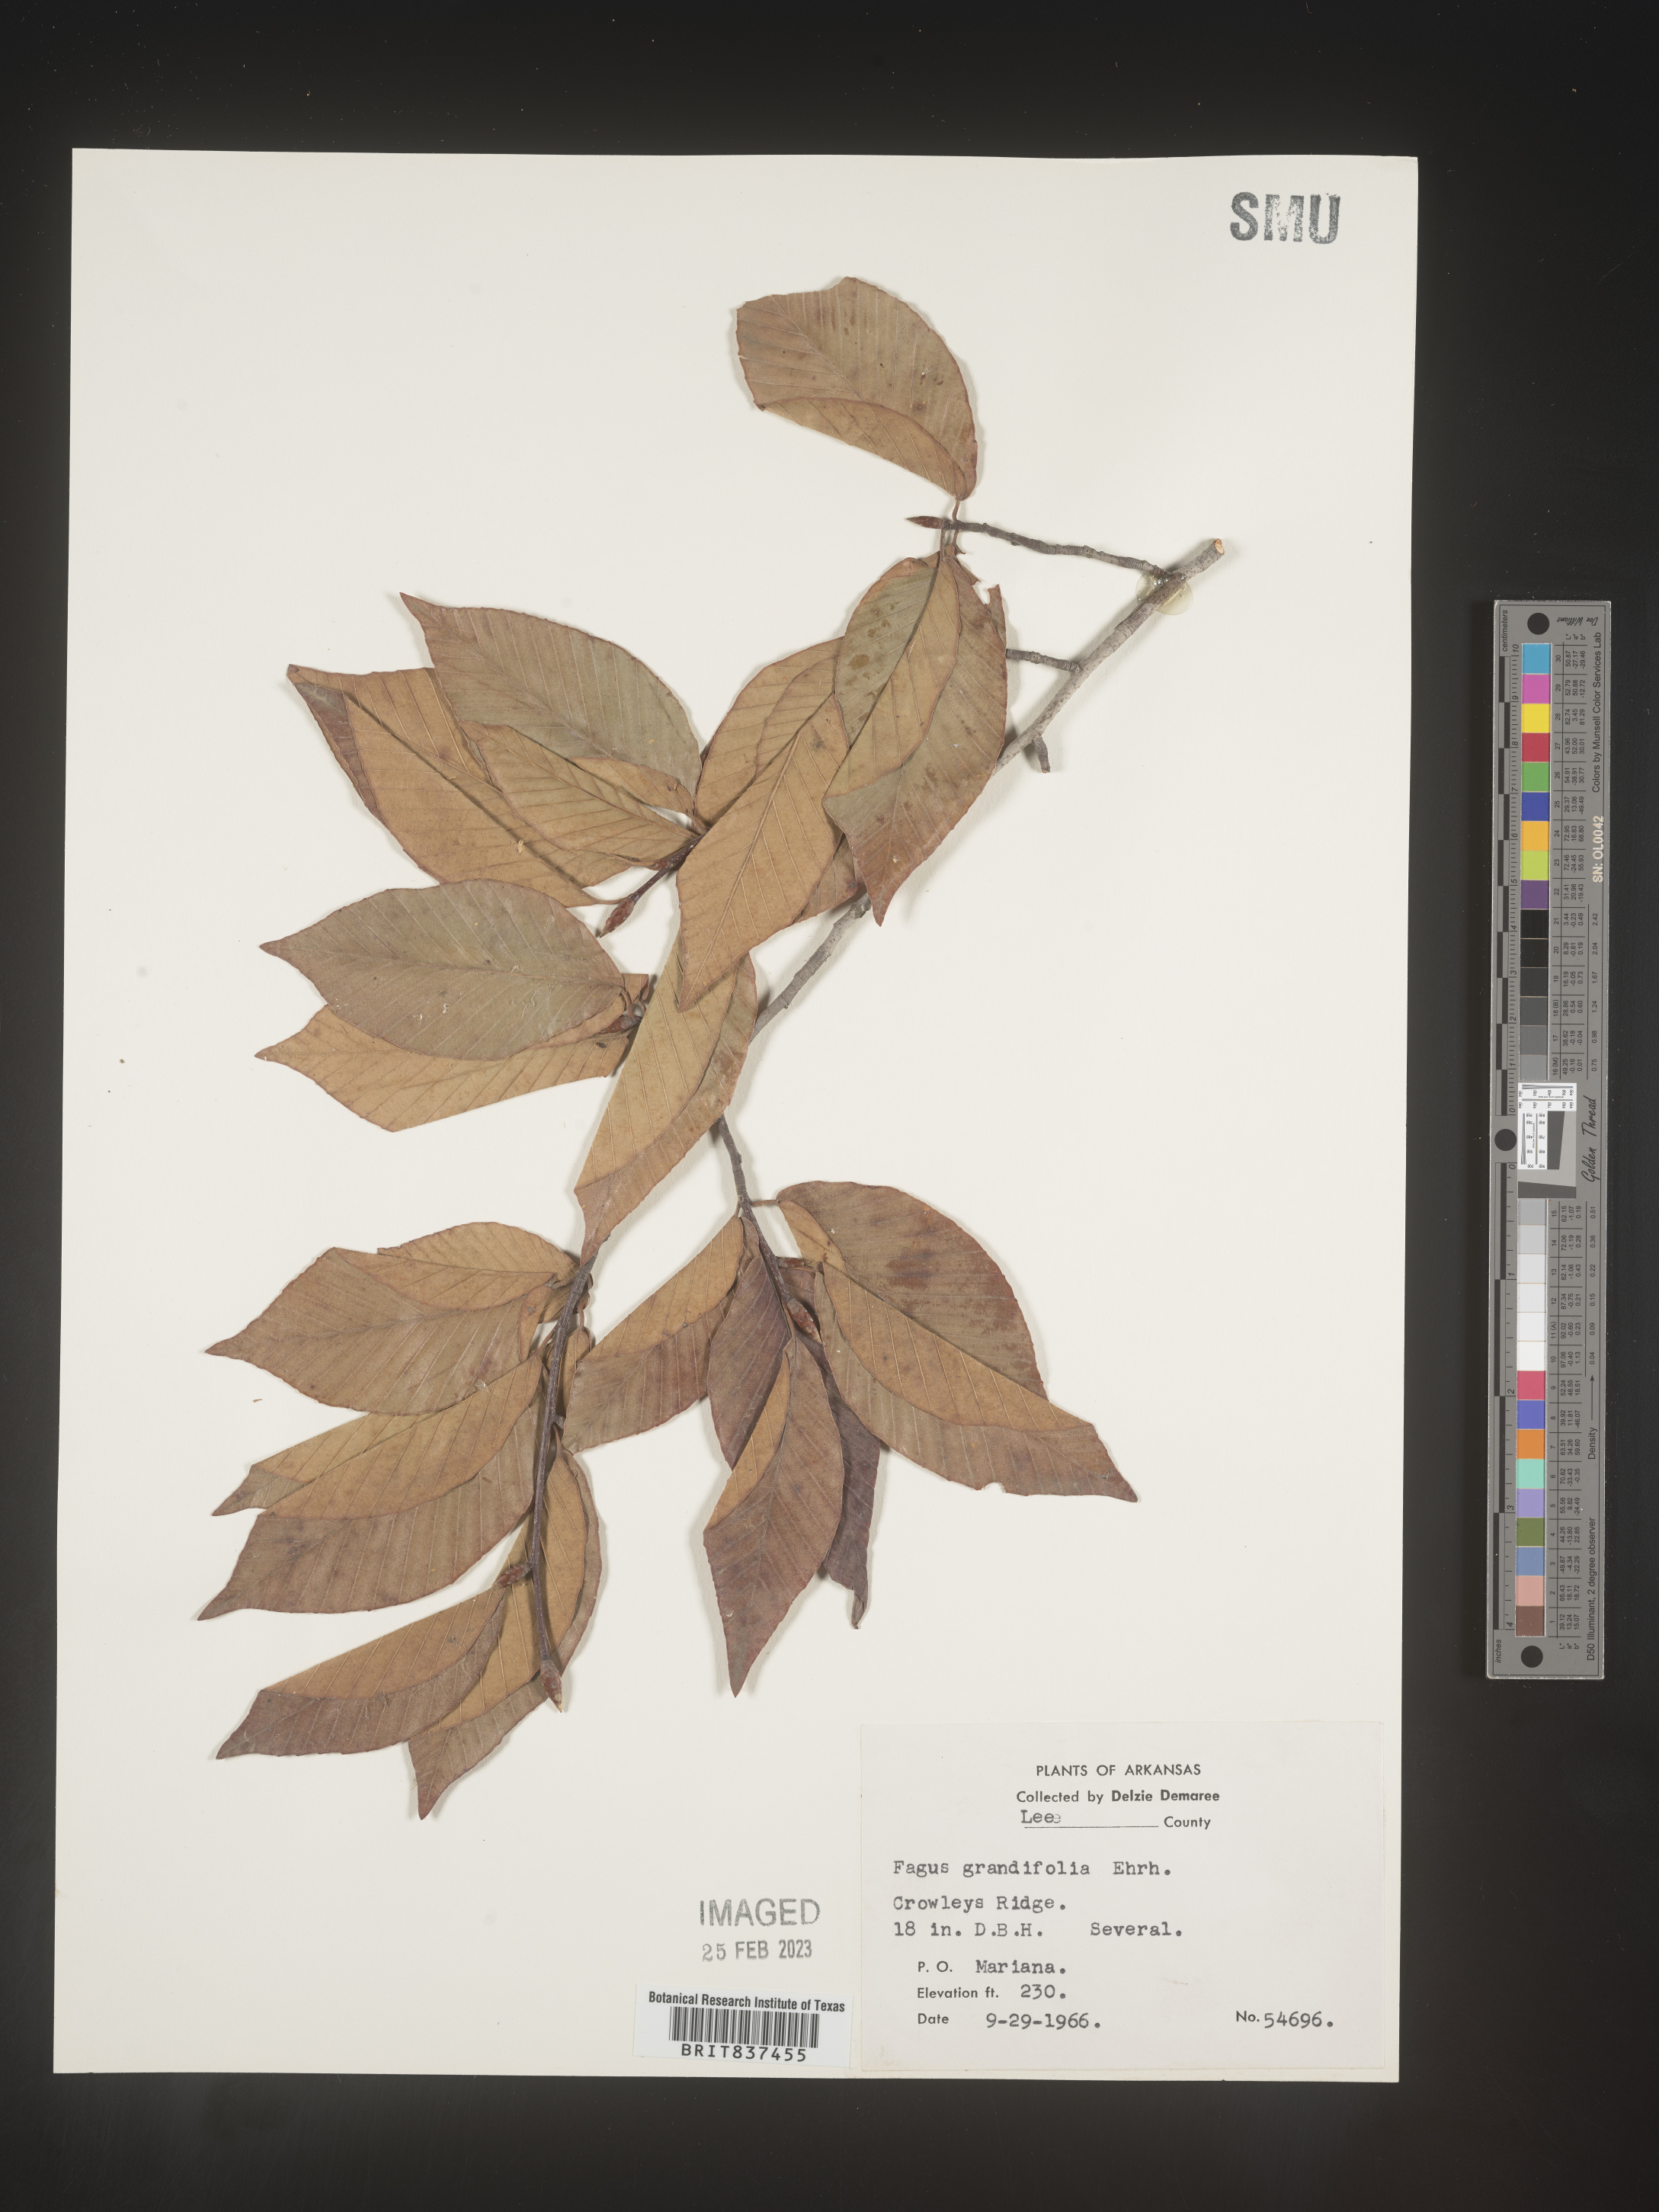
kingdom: Plantae
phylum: Tracheophyta
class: Magnoliopsida
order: Fagales
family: Fagaceae
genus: Fagus
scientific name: Fagus grandifolia
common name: American beech
